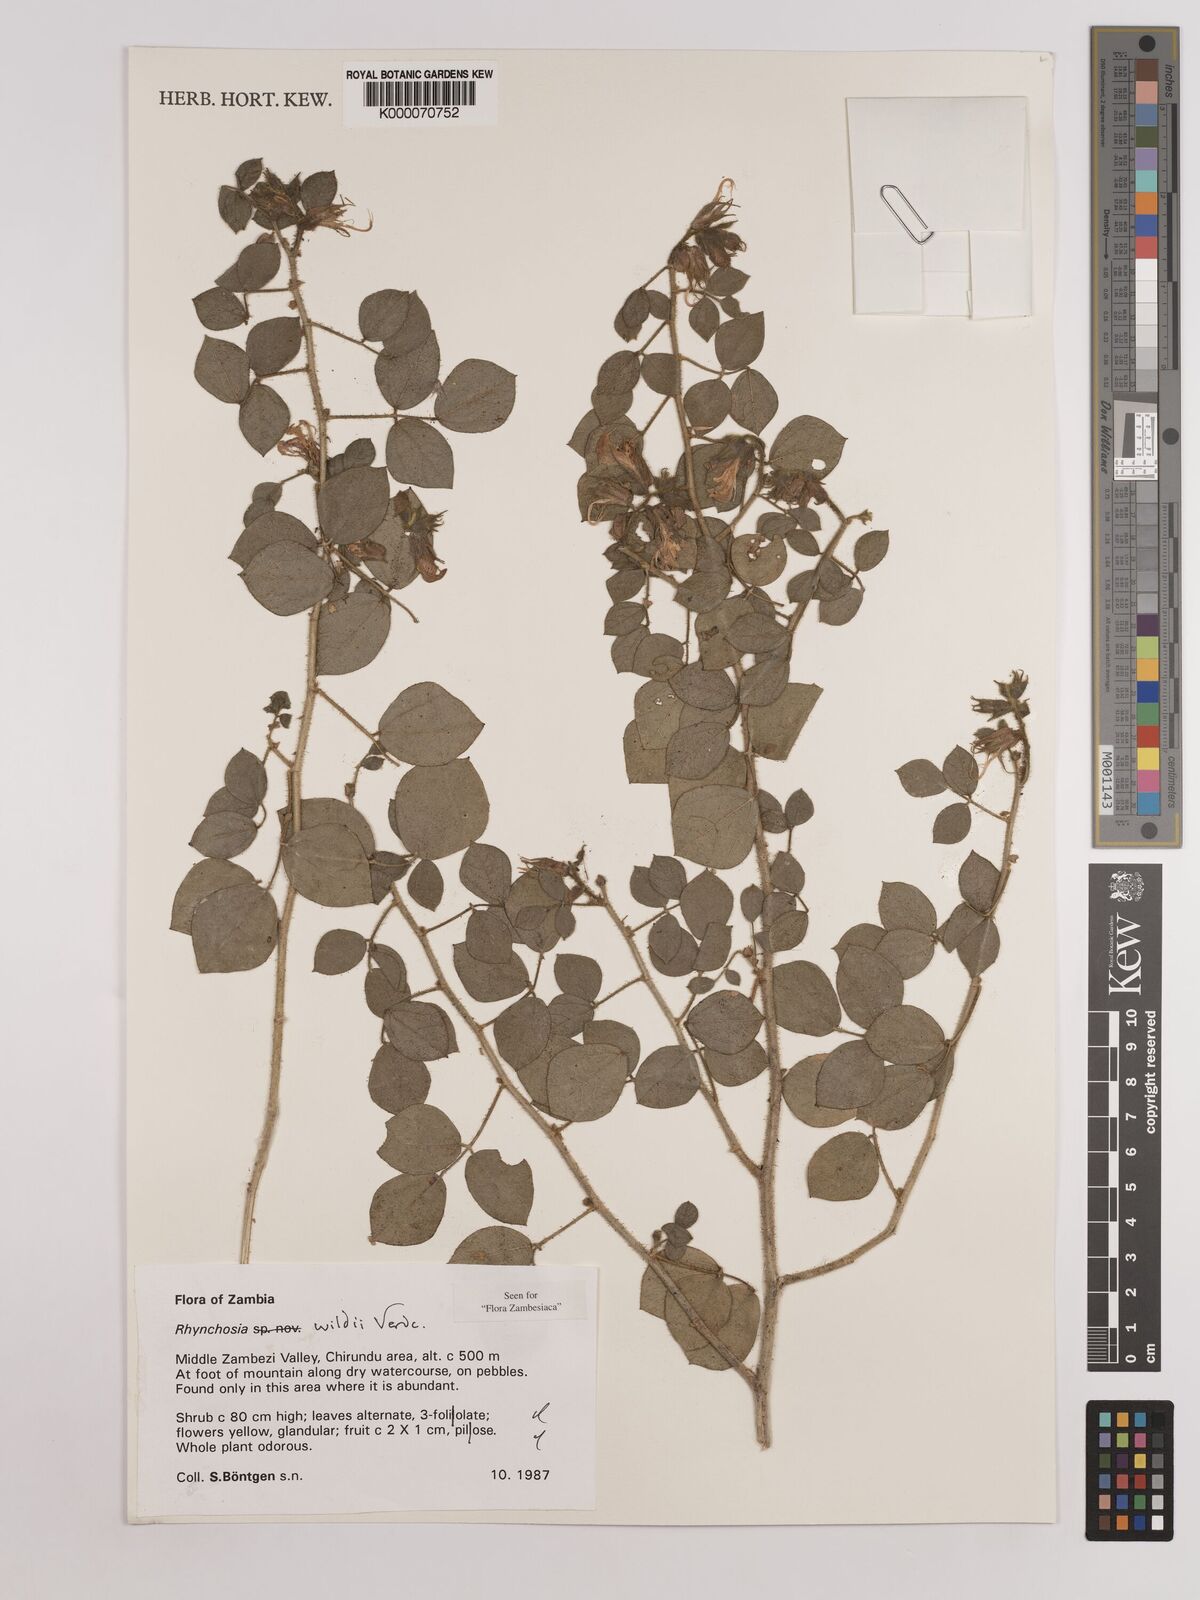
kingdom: Plantae
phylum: Tracheophyta
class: Magnoliopsida
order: Fabales
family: Fabaceae
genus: Rhynchosia
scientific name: Rhynchosia wildii
